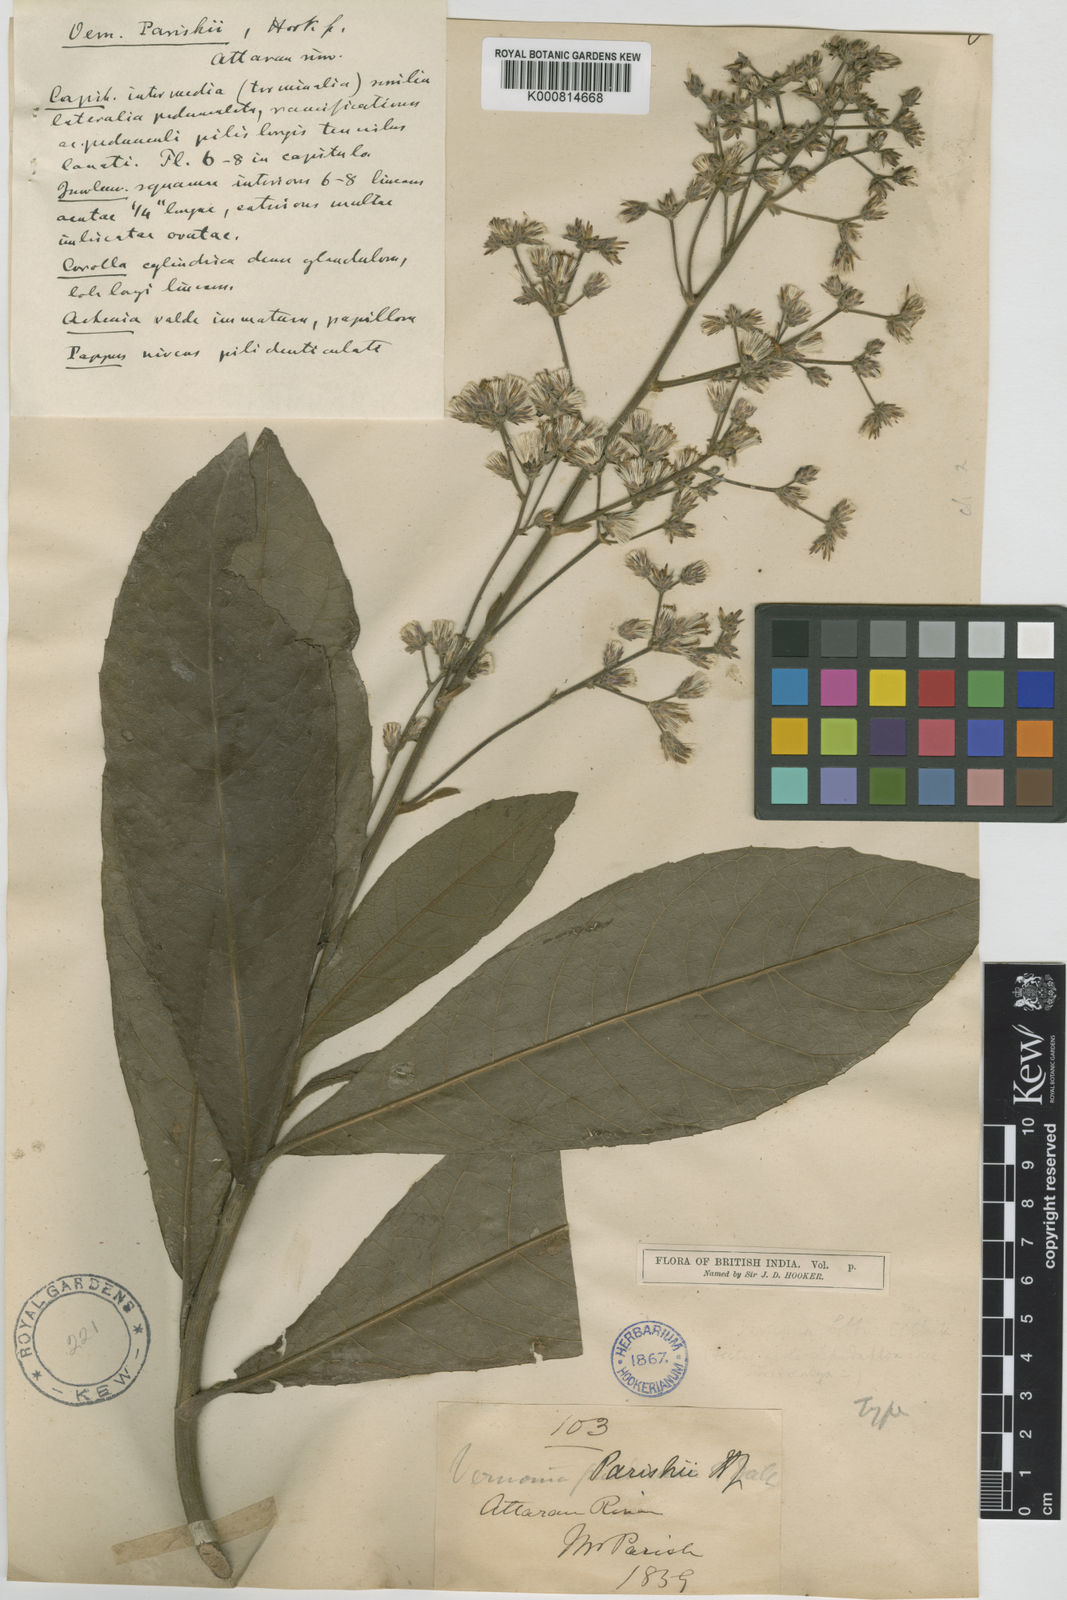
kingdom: Plantae
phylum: Tracheophyta
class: Magnoliopsida
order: Asterales
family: Asteraceae
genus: Monosis
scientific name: Monosis parishii
